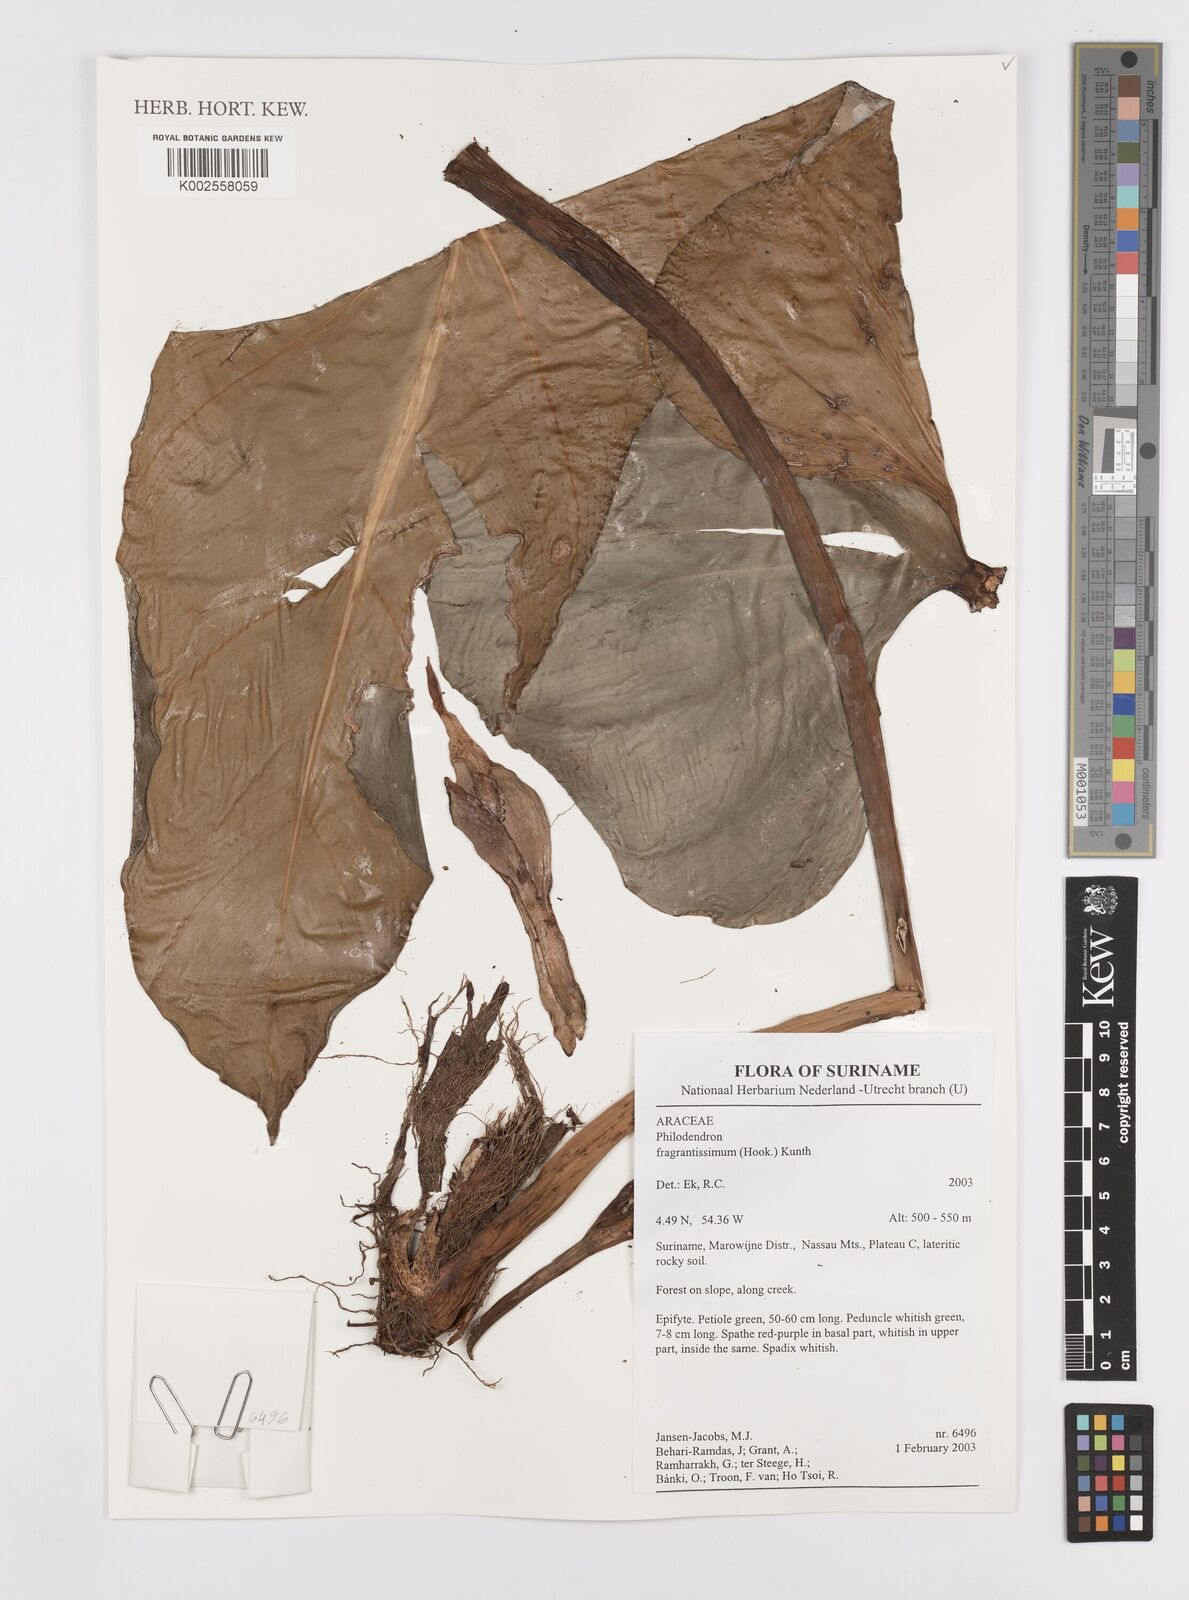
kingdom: Plantae
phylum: Tracheophyta
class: Liliopsida
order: Alismatales
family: Araceae
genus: Philodendron
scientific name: Philodendron fragrantissimum
